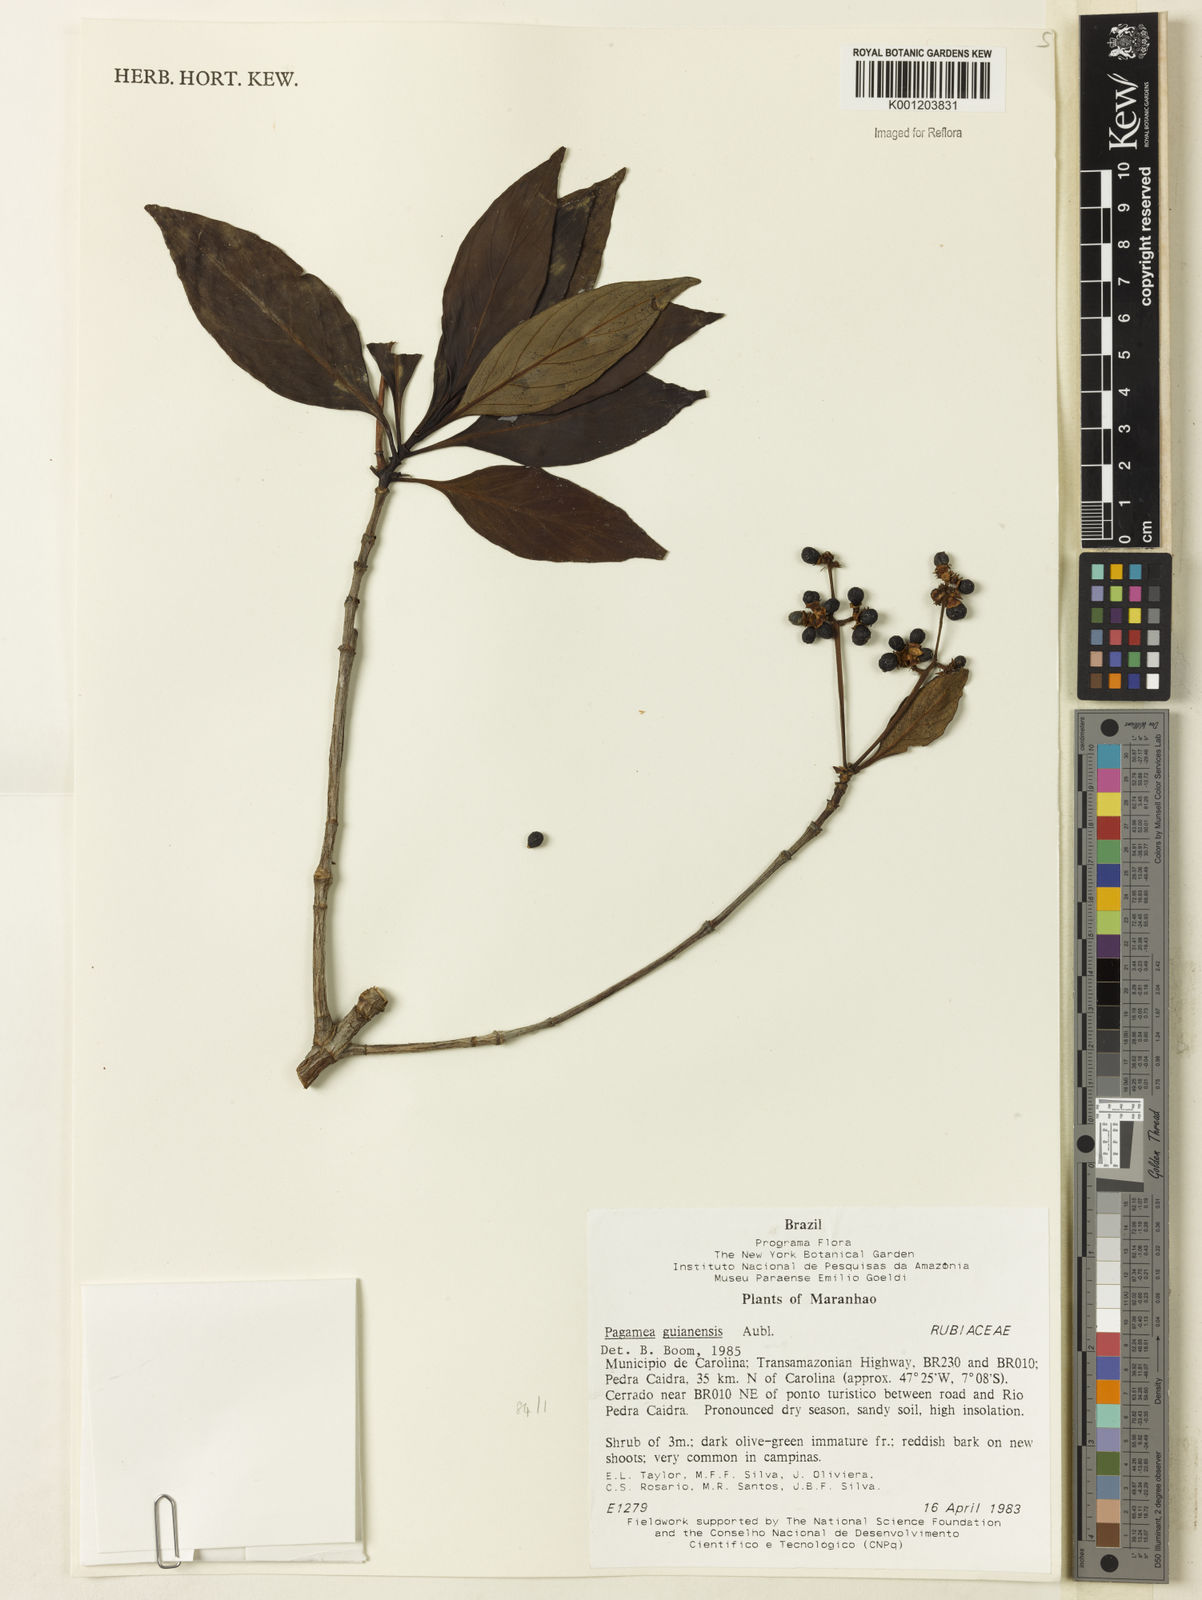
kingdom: Plantae
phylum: Tracheophyta
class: Magnoliopsida
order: Gentianales
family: Rubiaceae
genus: Pagamea
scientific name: Pagamea guianensis
